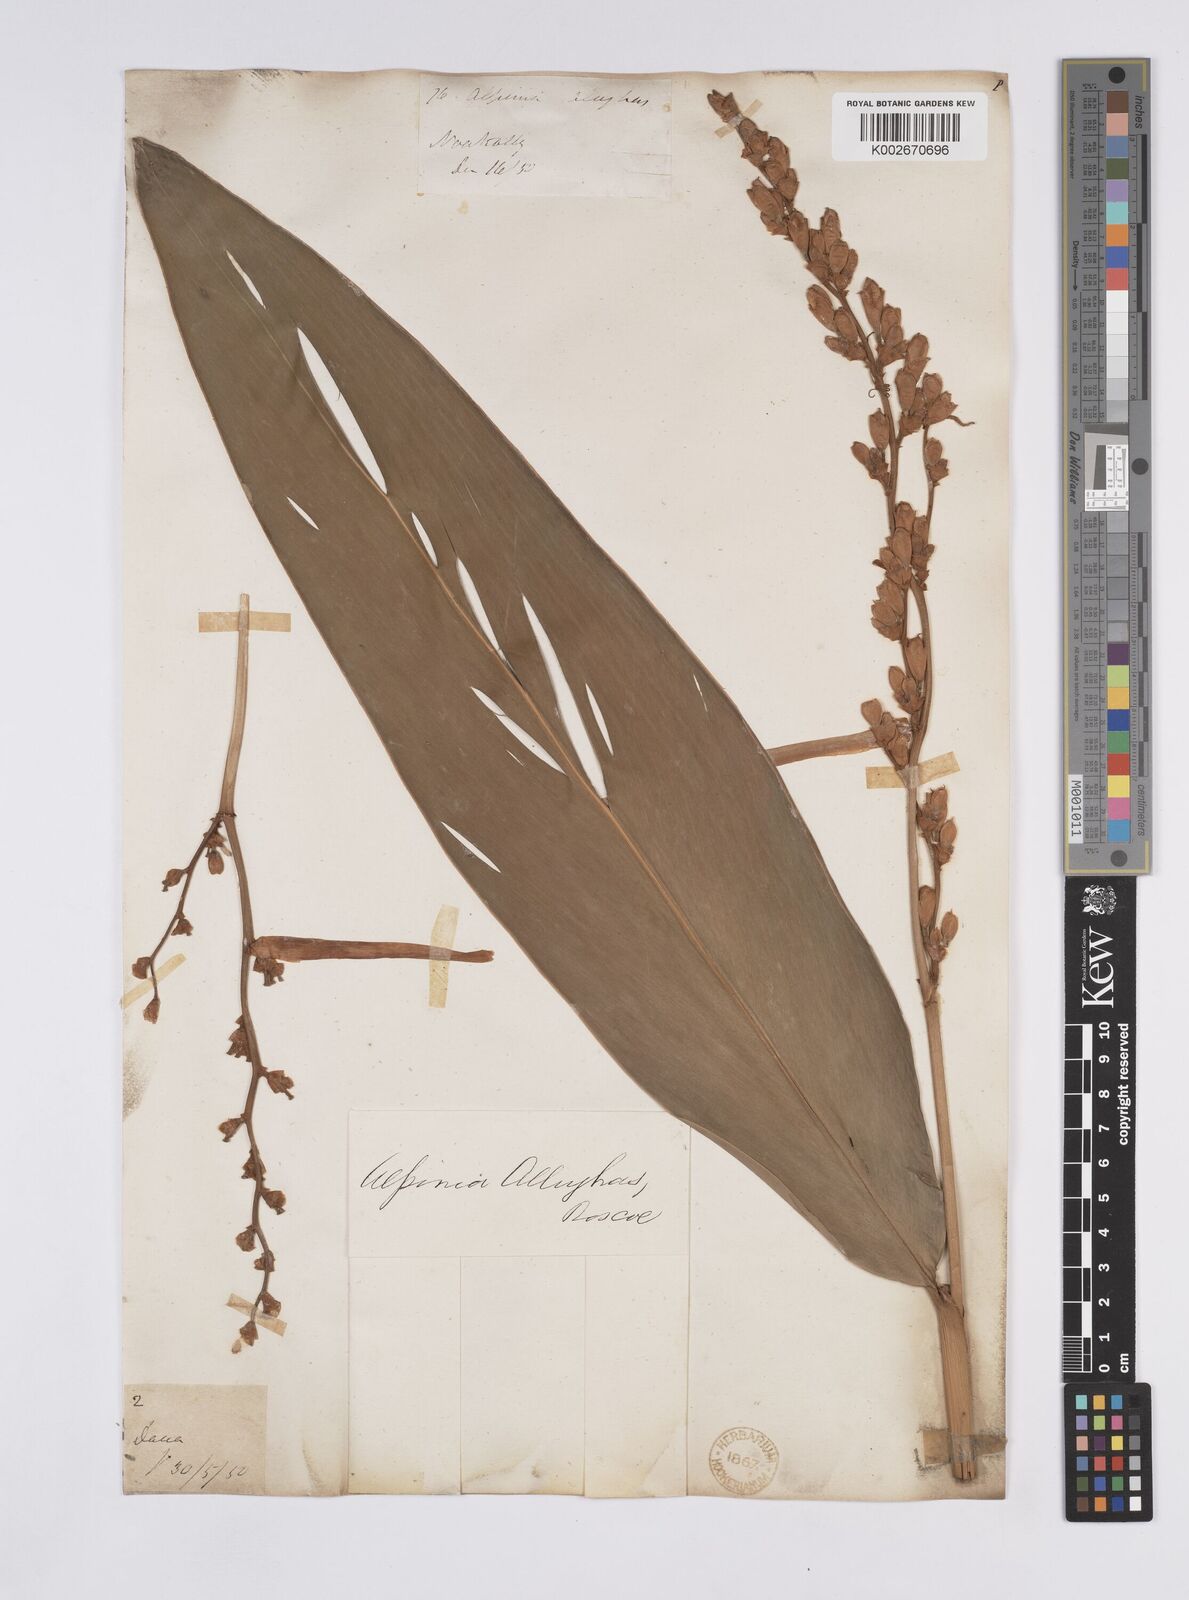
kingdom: Plantae
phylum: Tracheophyta
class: Liliopsida
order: Zingiberales
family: Zingiberaceae
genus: Alpinia
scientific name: Alpinia nigra
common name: Black fruited galanga
